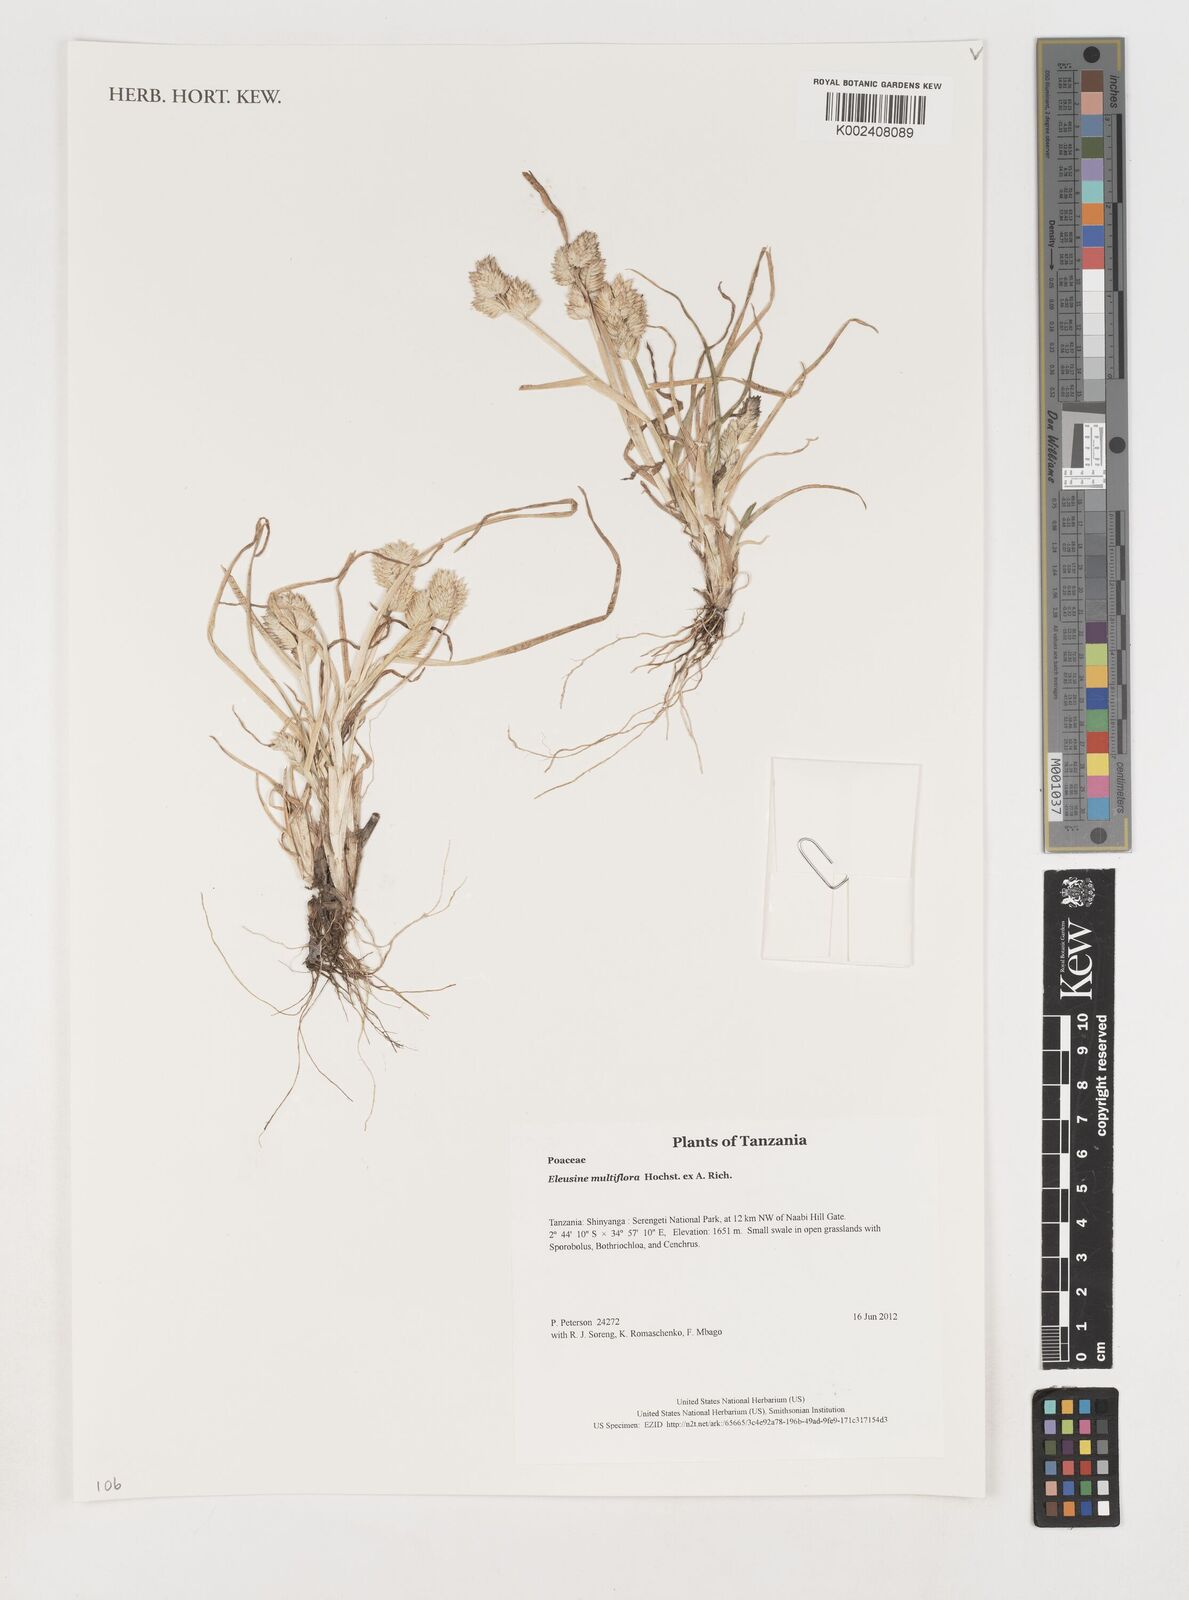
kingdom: Plantae
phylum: Tracheophyta
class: Liliopsida
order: Poales
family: Poaceae
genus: Eleusine
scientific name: Eleusine multiflora
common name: Fat-spiked yard-grass
